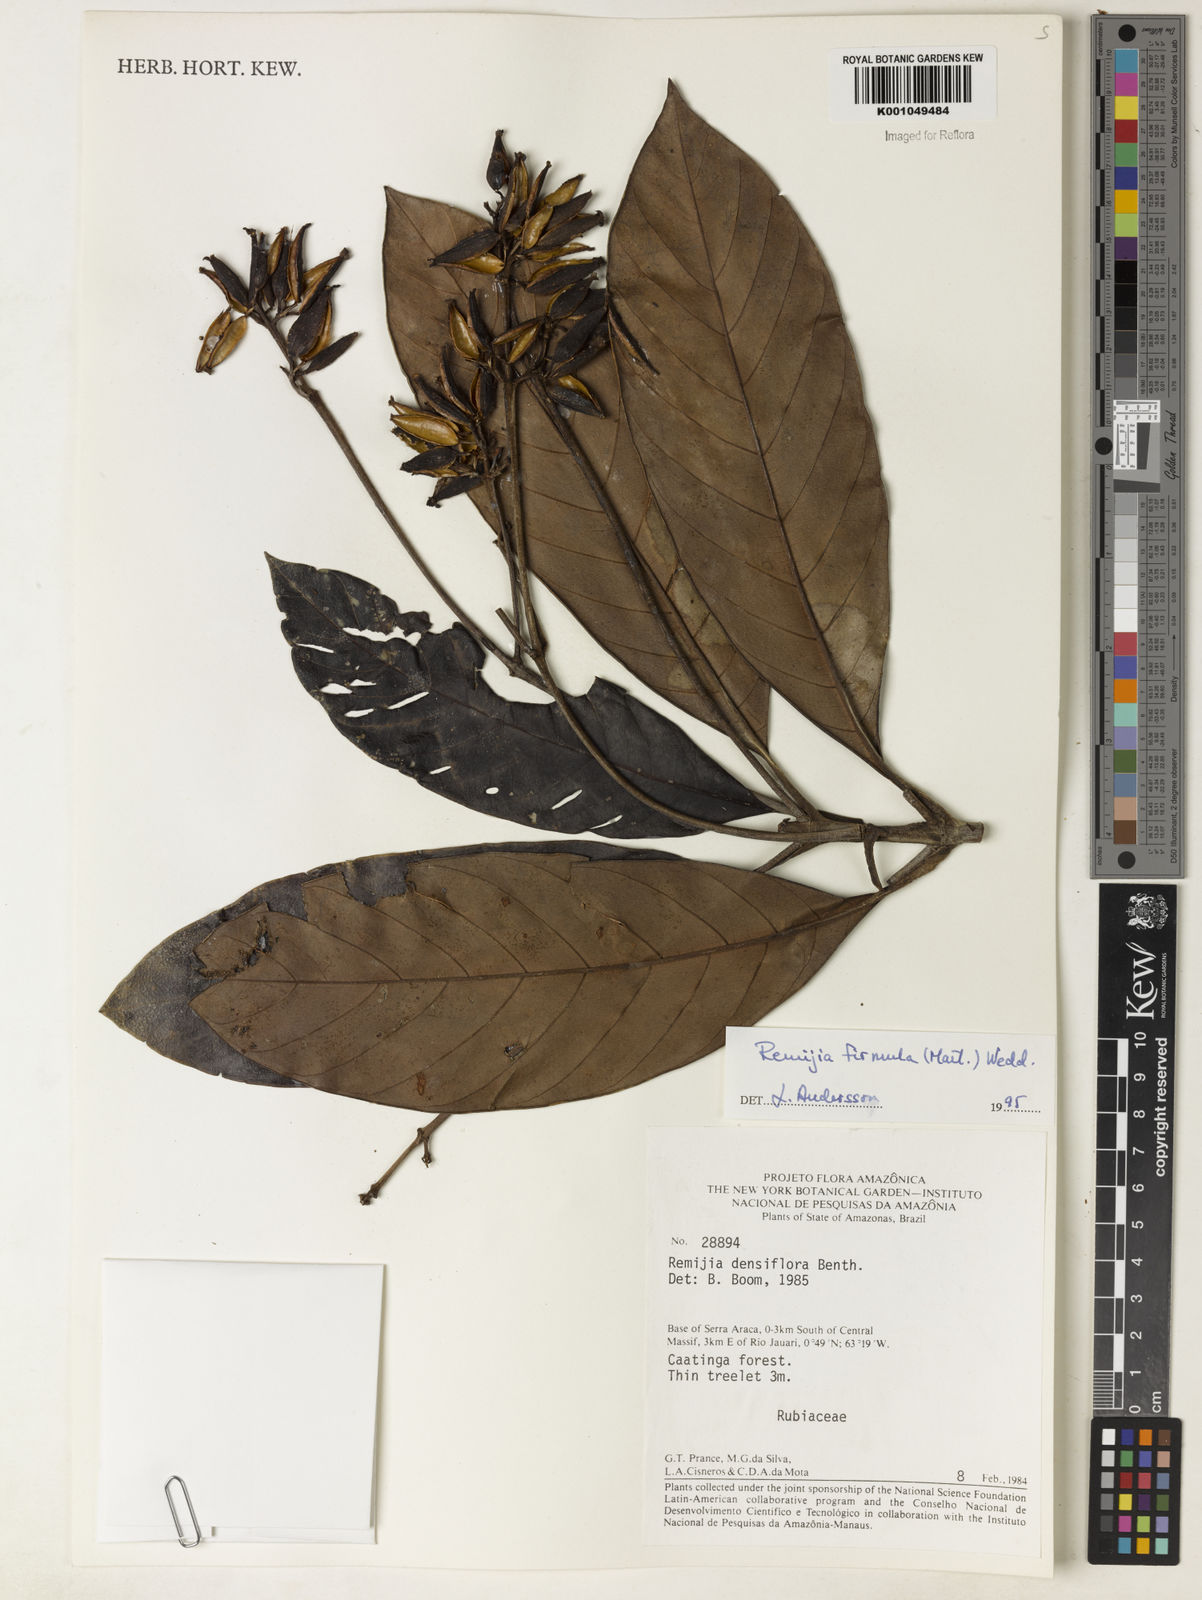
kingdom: Plantae
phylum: Tracheophyta
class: Magnoliopsida
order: Gentianales
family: Rubiaceae
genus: Remijia
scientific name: Remijia firmula
